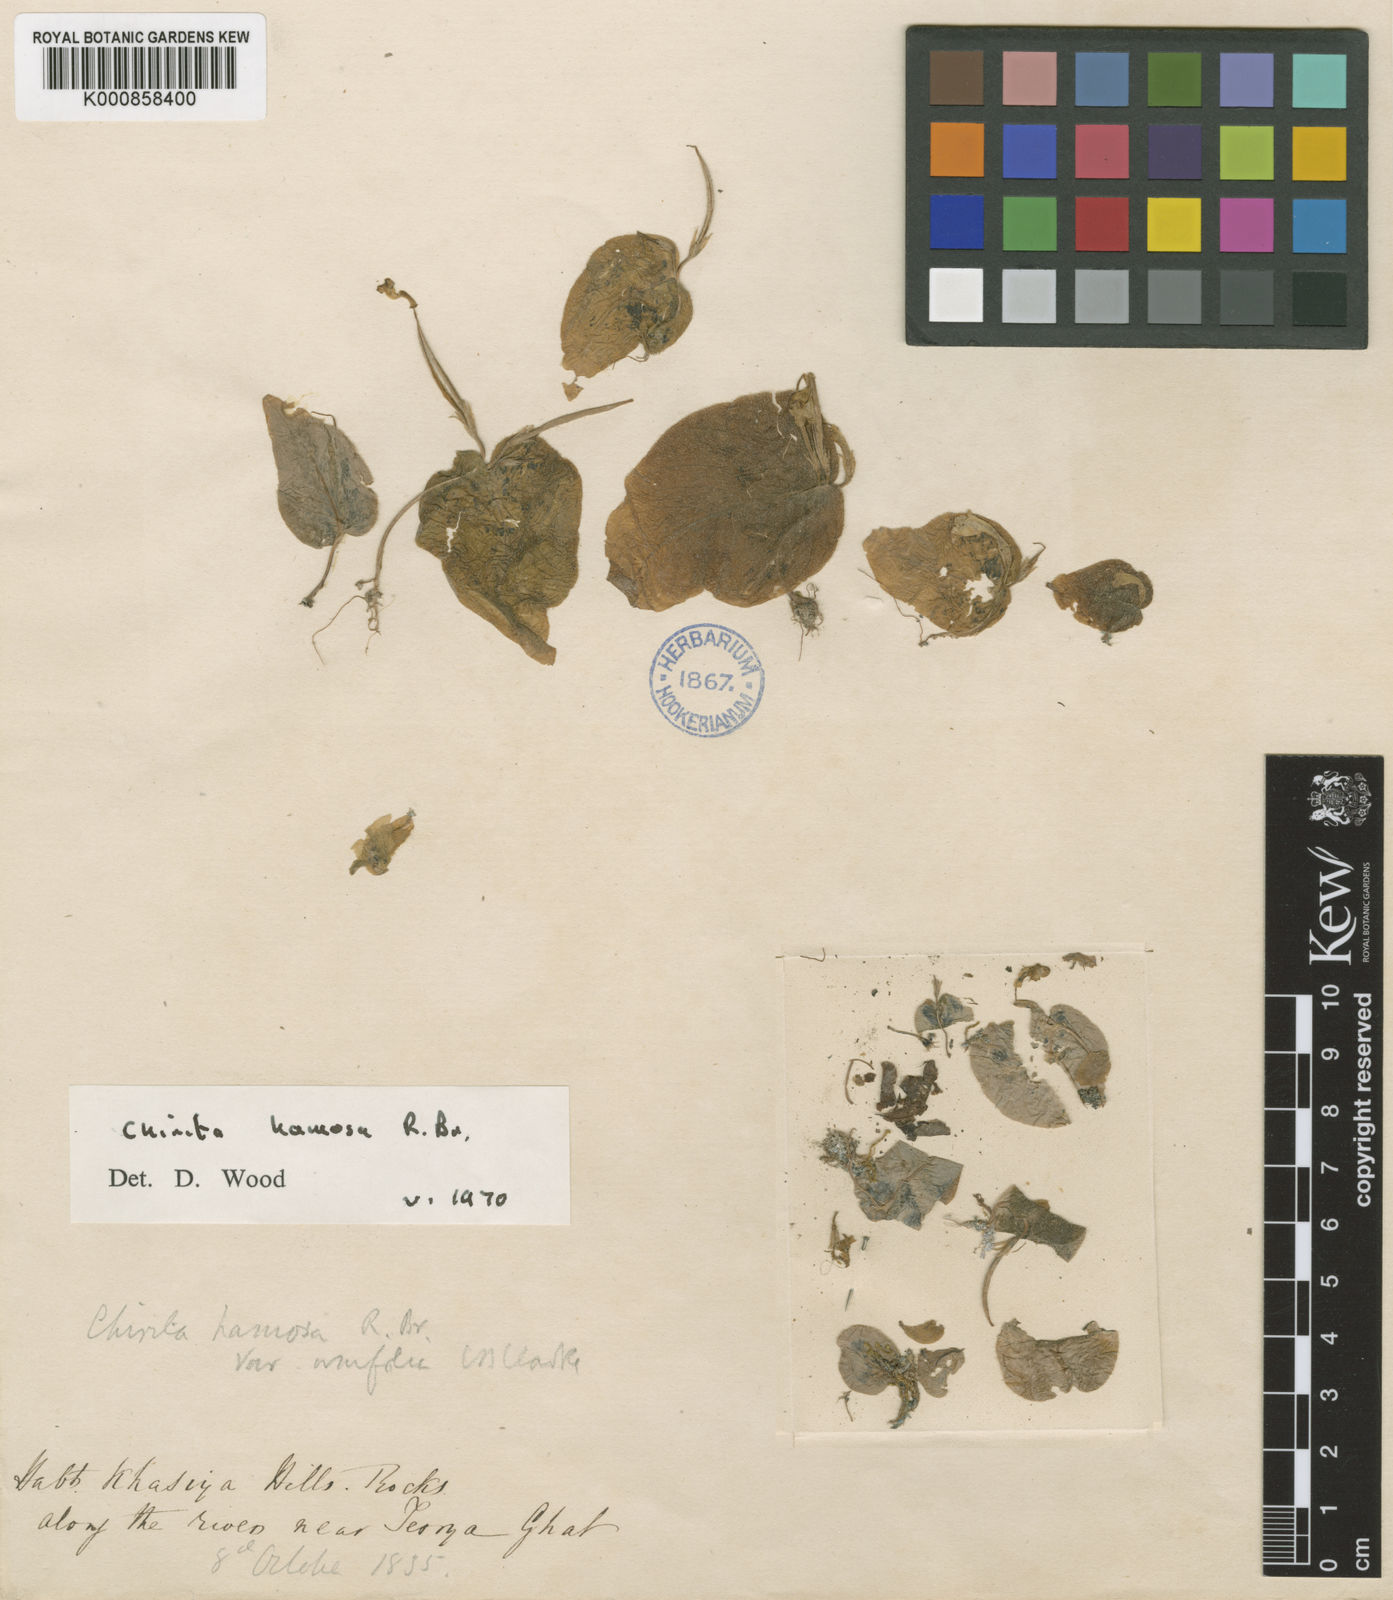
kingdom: Plantae
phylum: Tracheophyta
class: Magnoliopsida
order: Lamiales
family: Gesneriaceae
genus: Microchirita
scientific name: Microchirita hamosa
